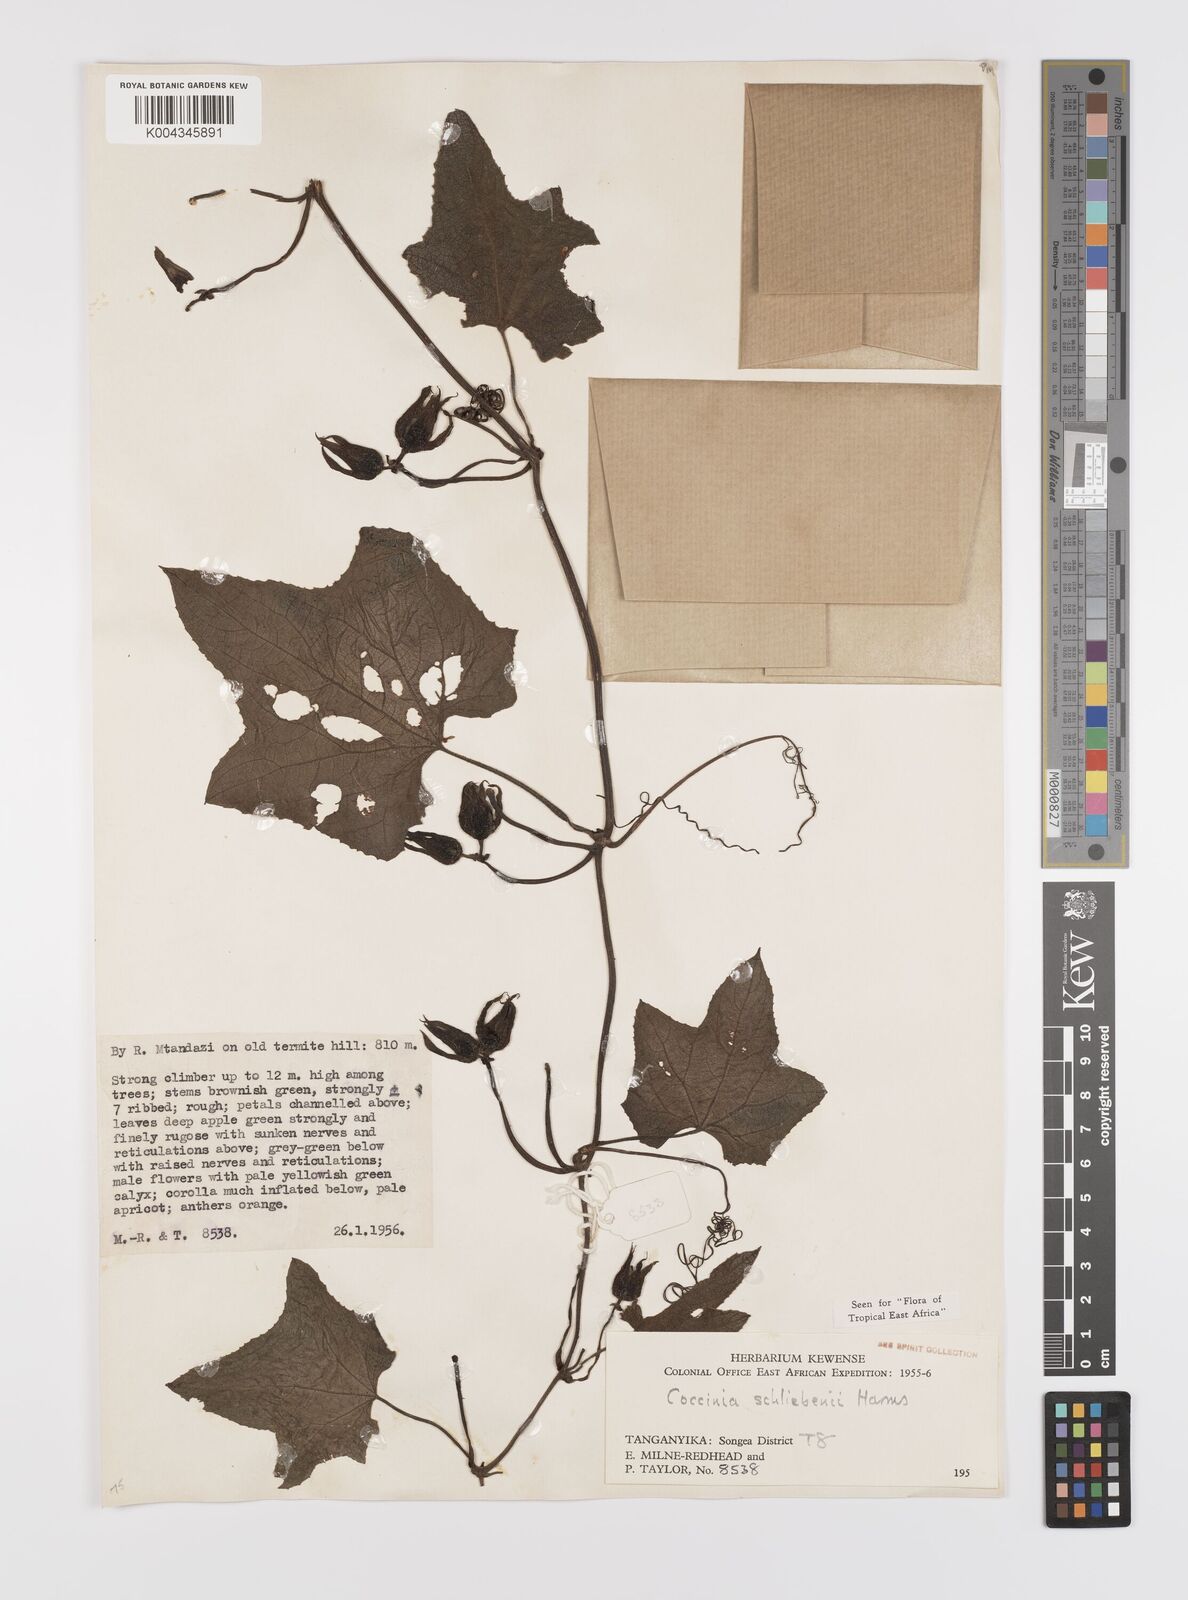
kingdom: Plantae
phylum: Tracheophyta
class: Magnoliopsida
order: Cucurbitales
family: Cucurbitaceae
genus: Coccinia
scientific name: Coccinia schliebenii
